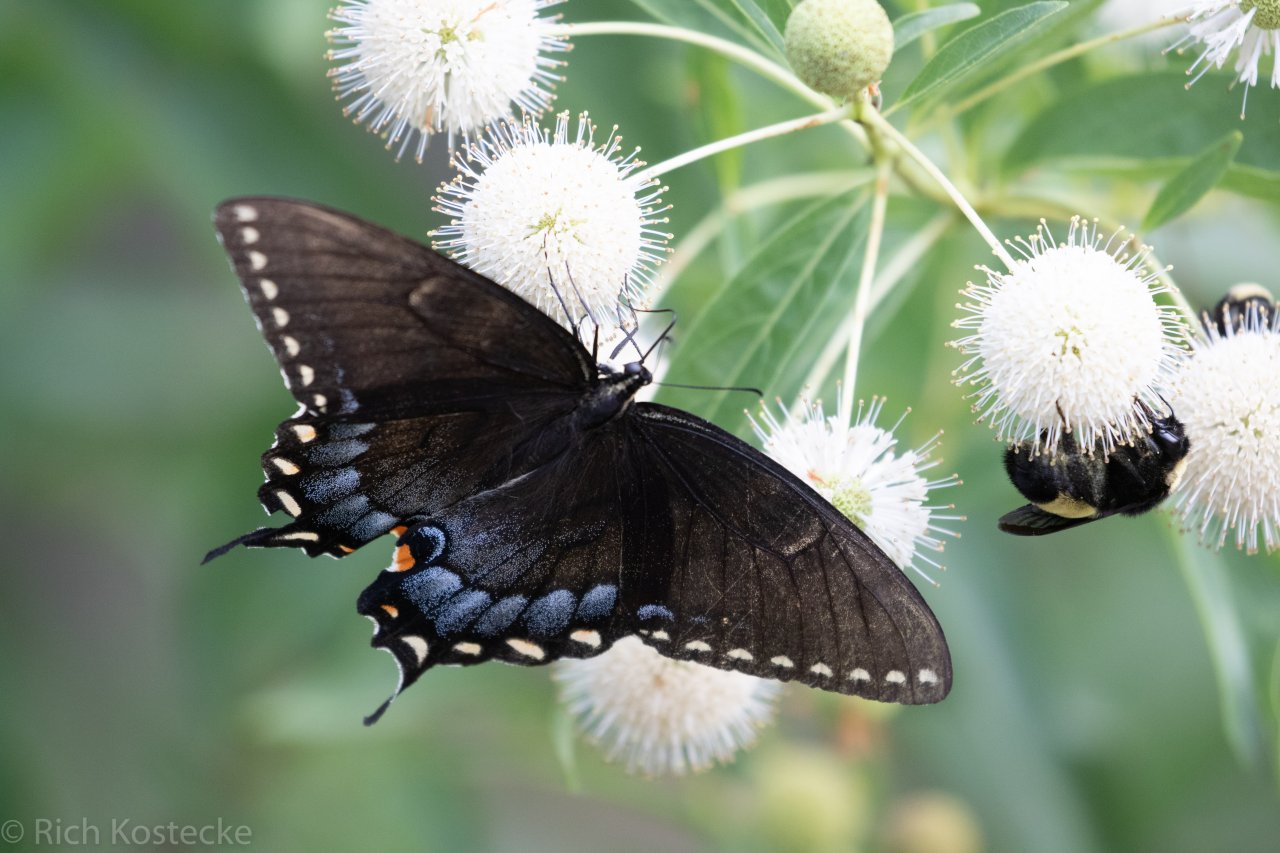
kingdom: Animalia
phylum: Arthropoda
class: Insecta
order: Lepidoptera
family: Papilionidae
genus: Pterourus
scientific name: Pterourus glaucus
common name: Eastern Tiger Swallowtail
